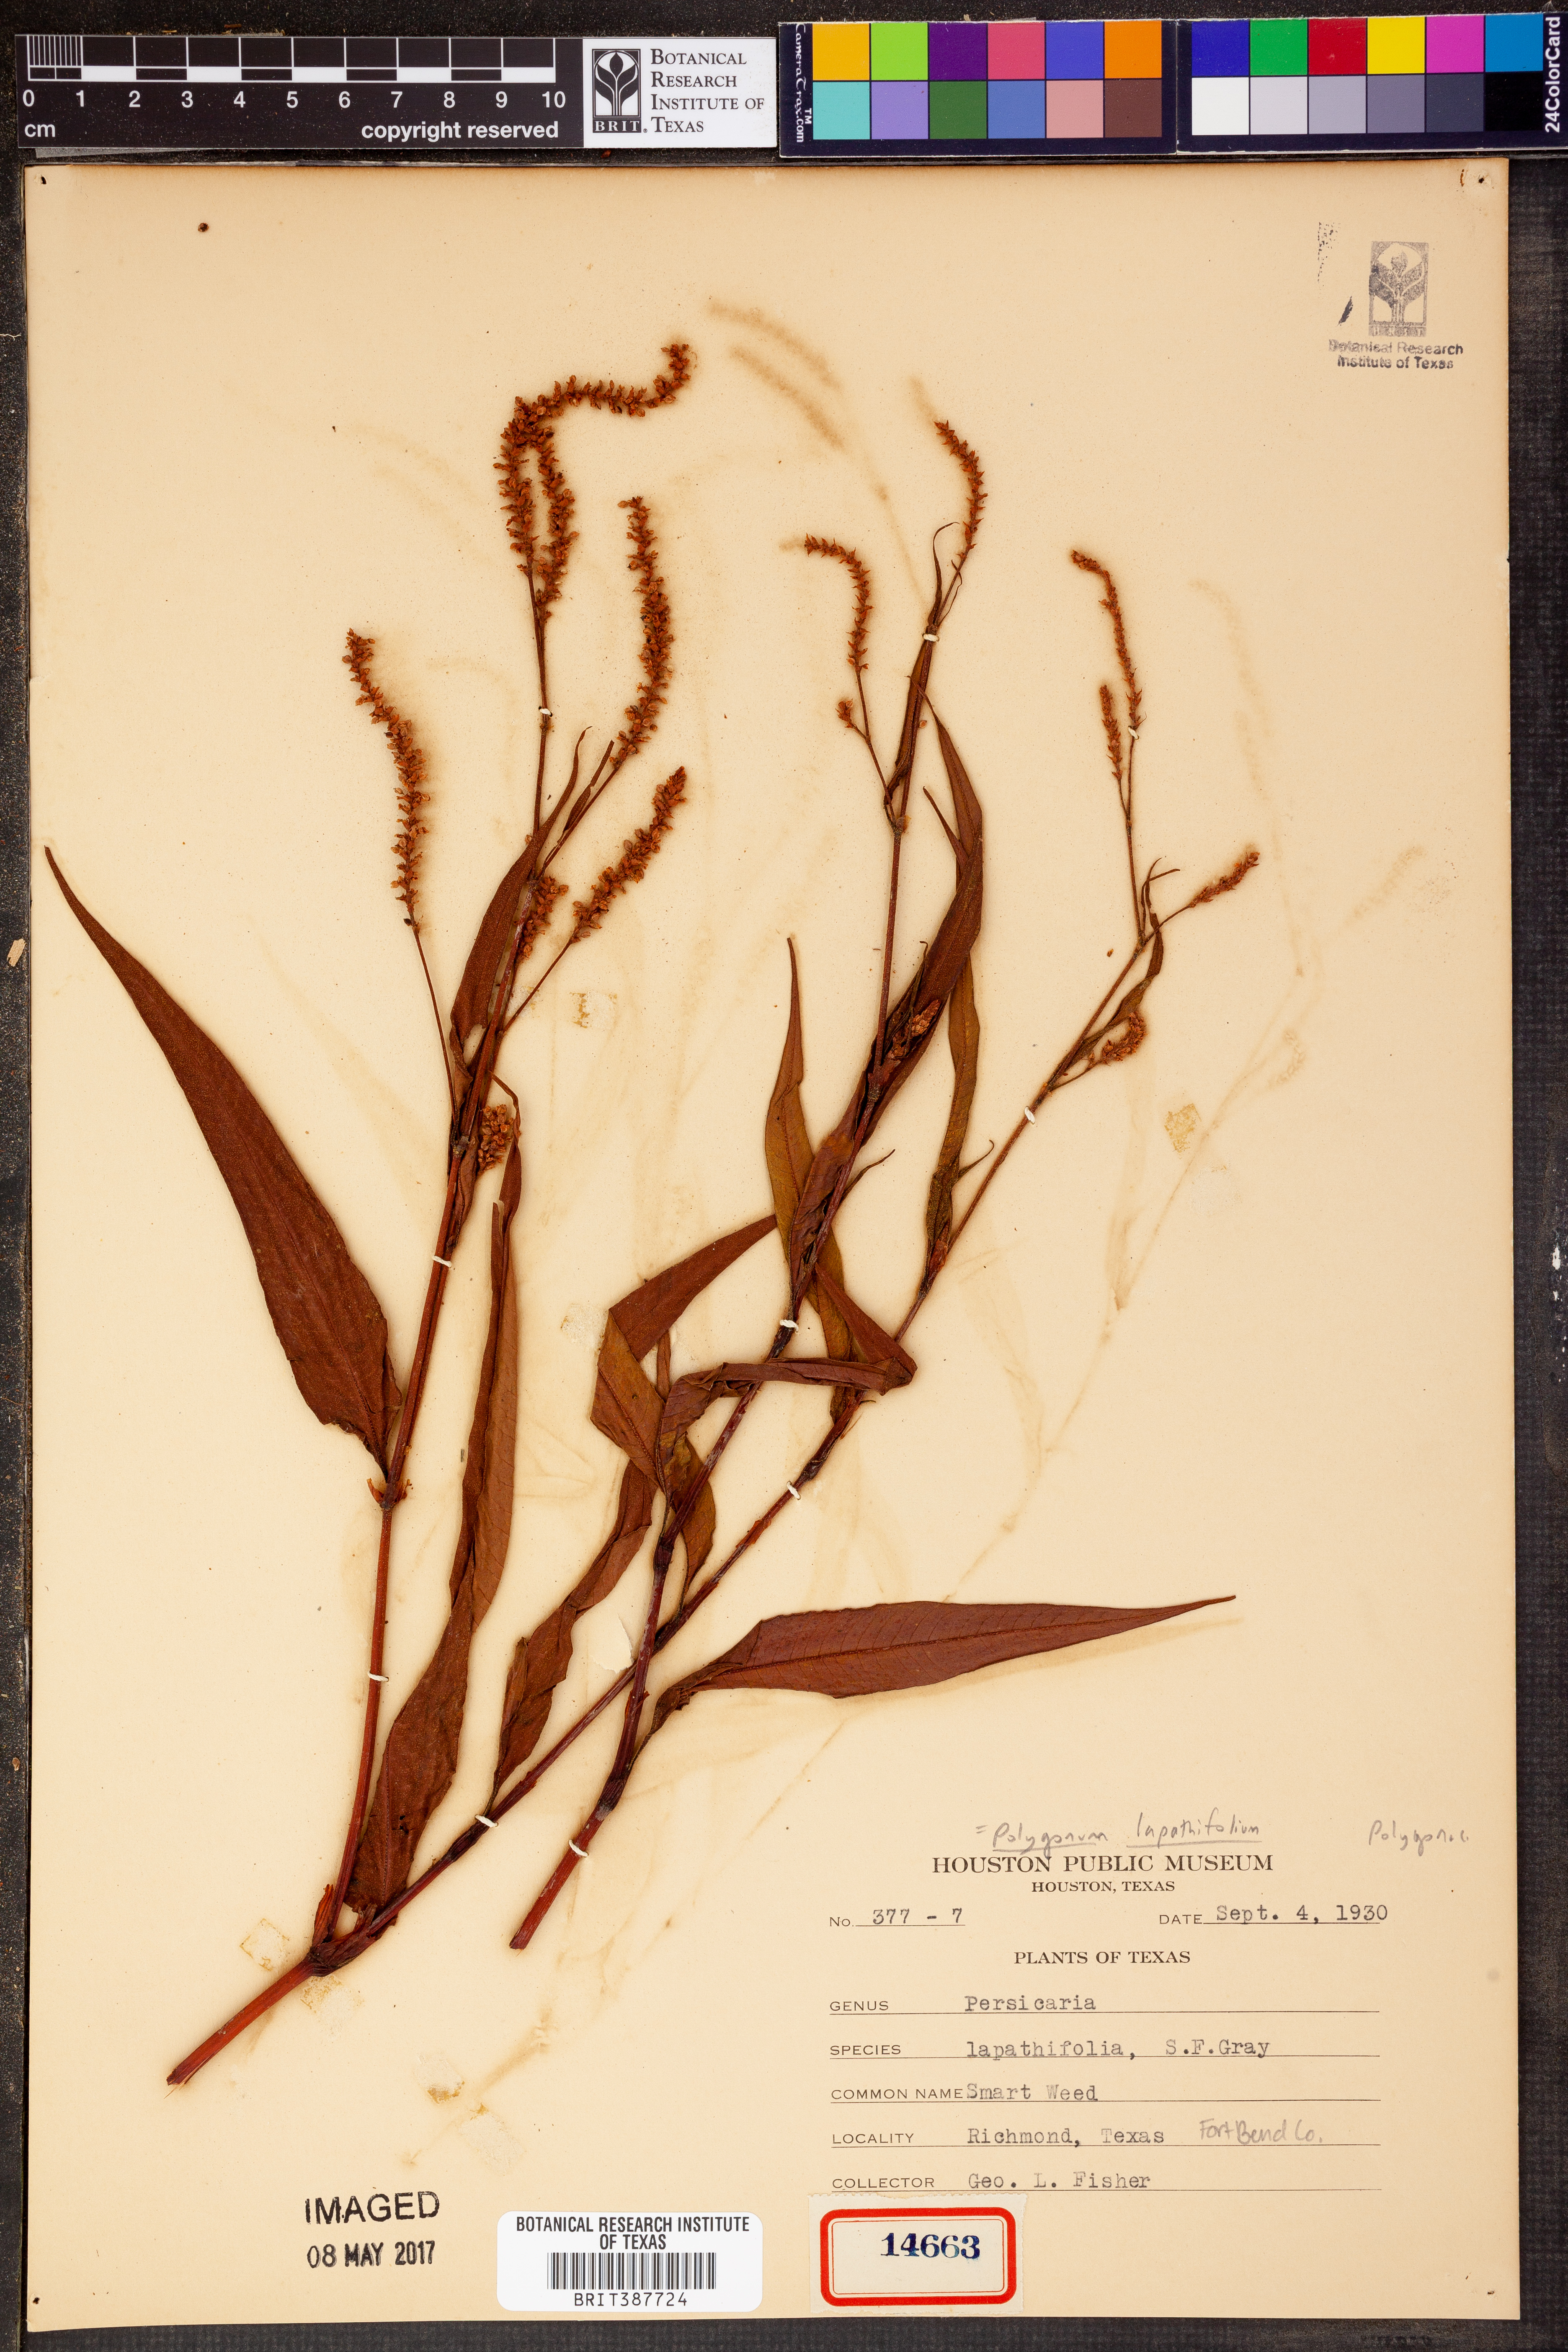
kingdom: Plantae
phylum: Tracheophyta
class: Magnoliopsida
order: Caryophyllales
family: Polygonaceae
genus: Persicaria
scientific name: Persicaria lapathifolia
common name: Curlytop knotweed
